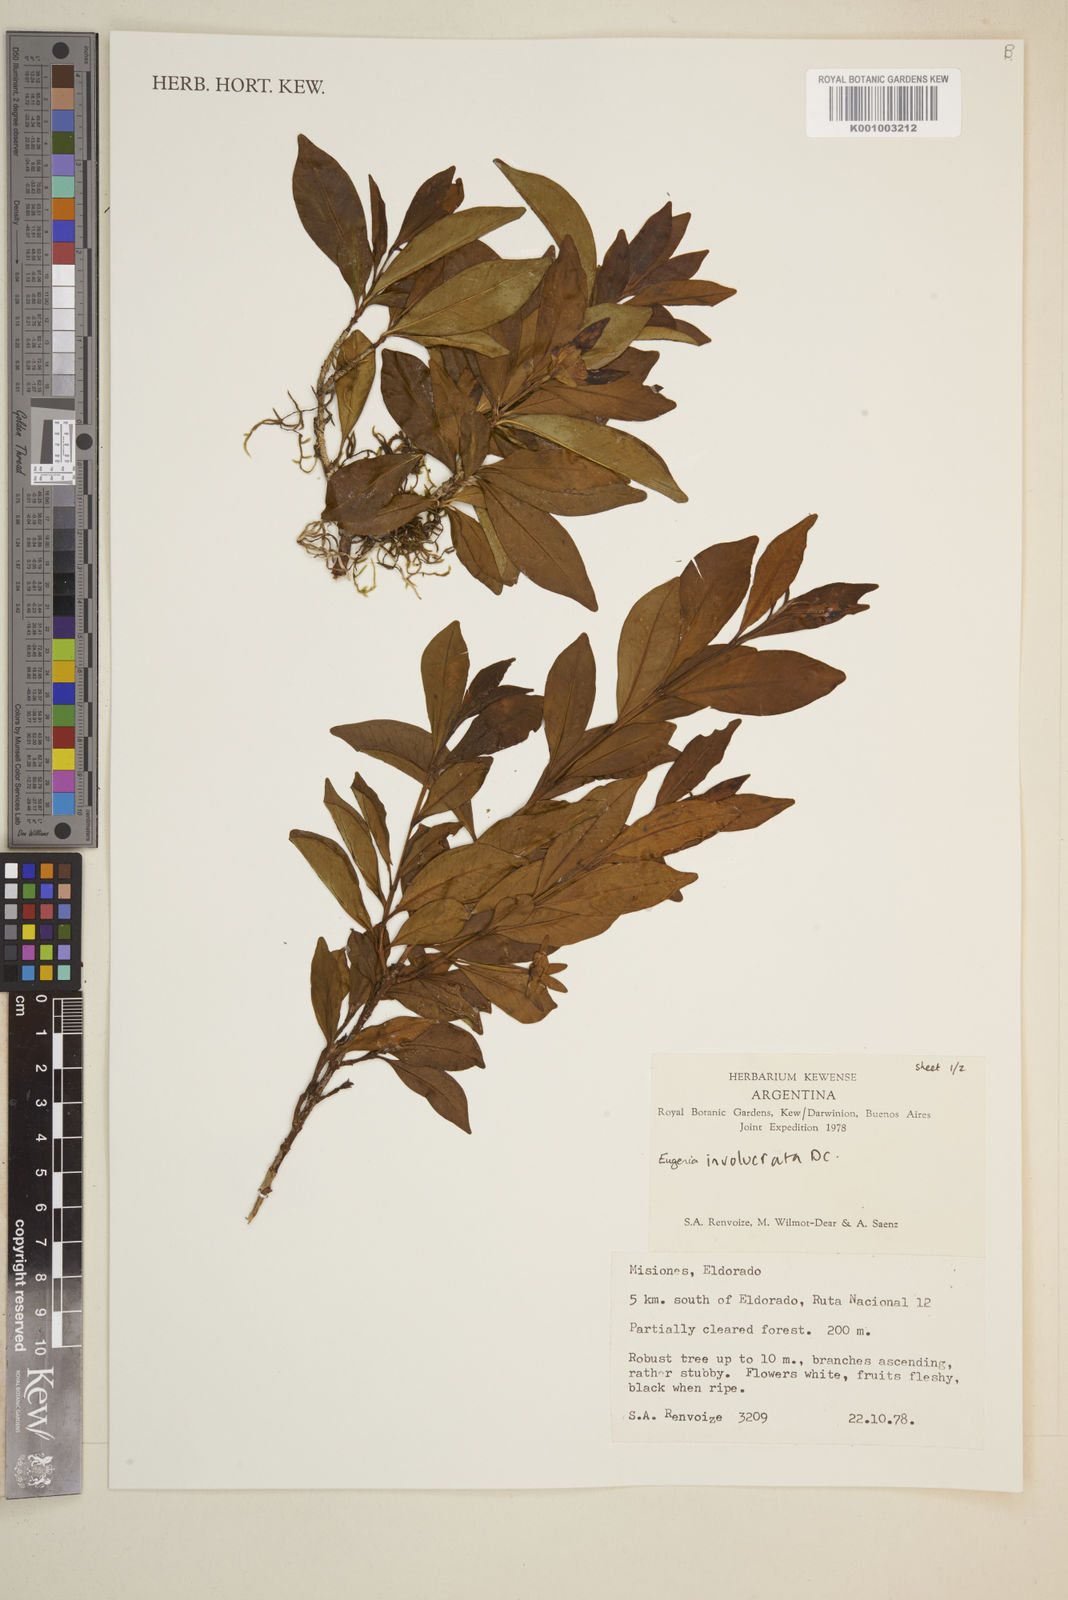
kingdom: Plantae
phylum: Tracheophyta
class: Magnoliopsida
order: Myrtales
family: Myrtaceae
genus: Eugenia
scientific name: Eugenia involucrata
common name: Cherry-of-the-rio grande
